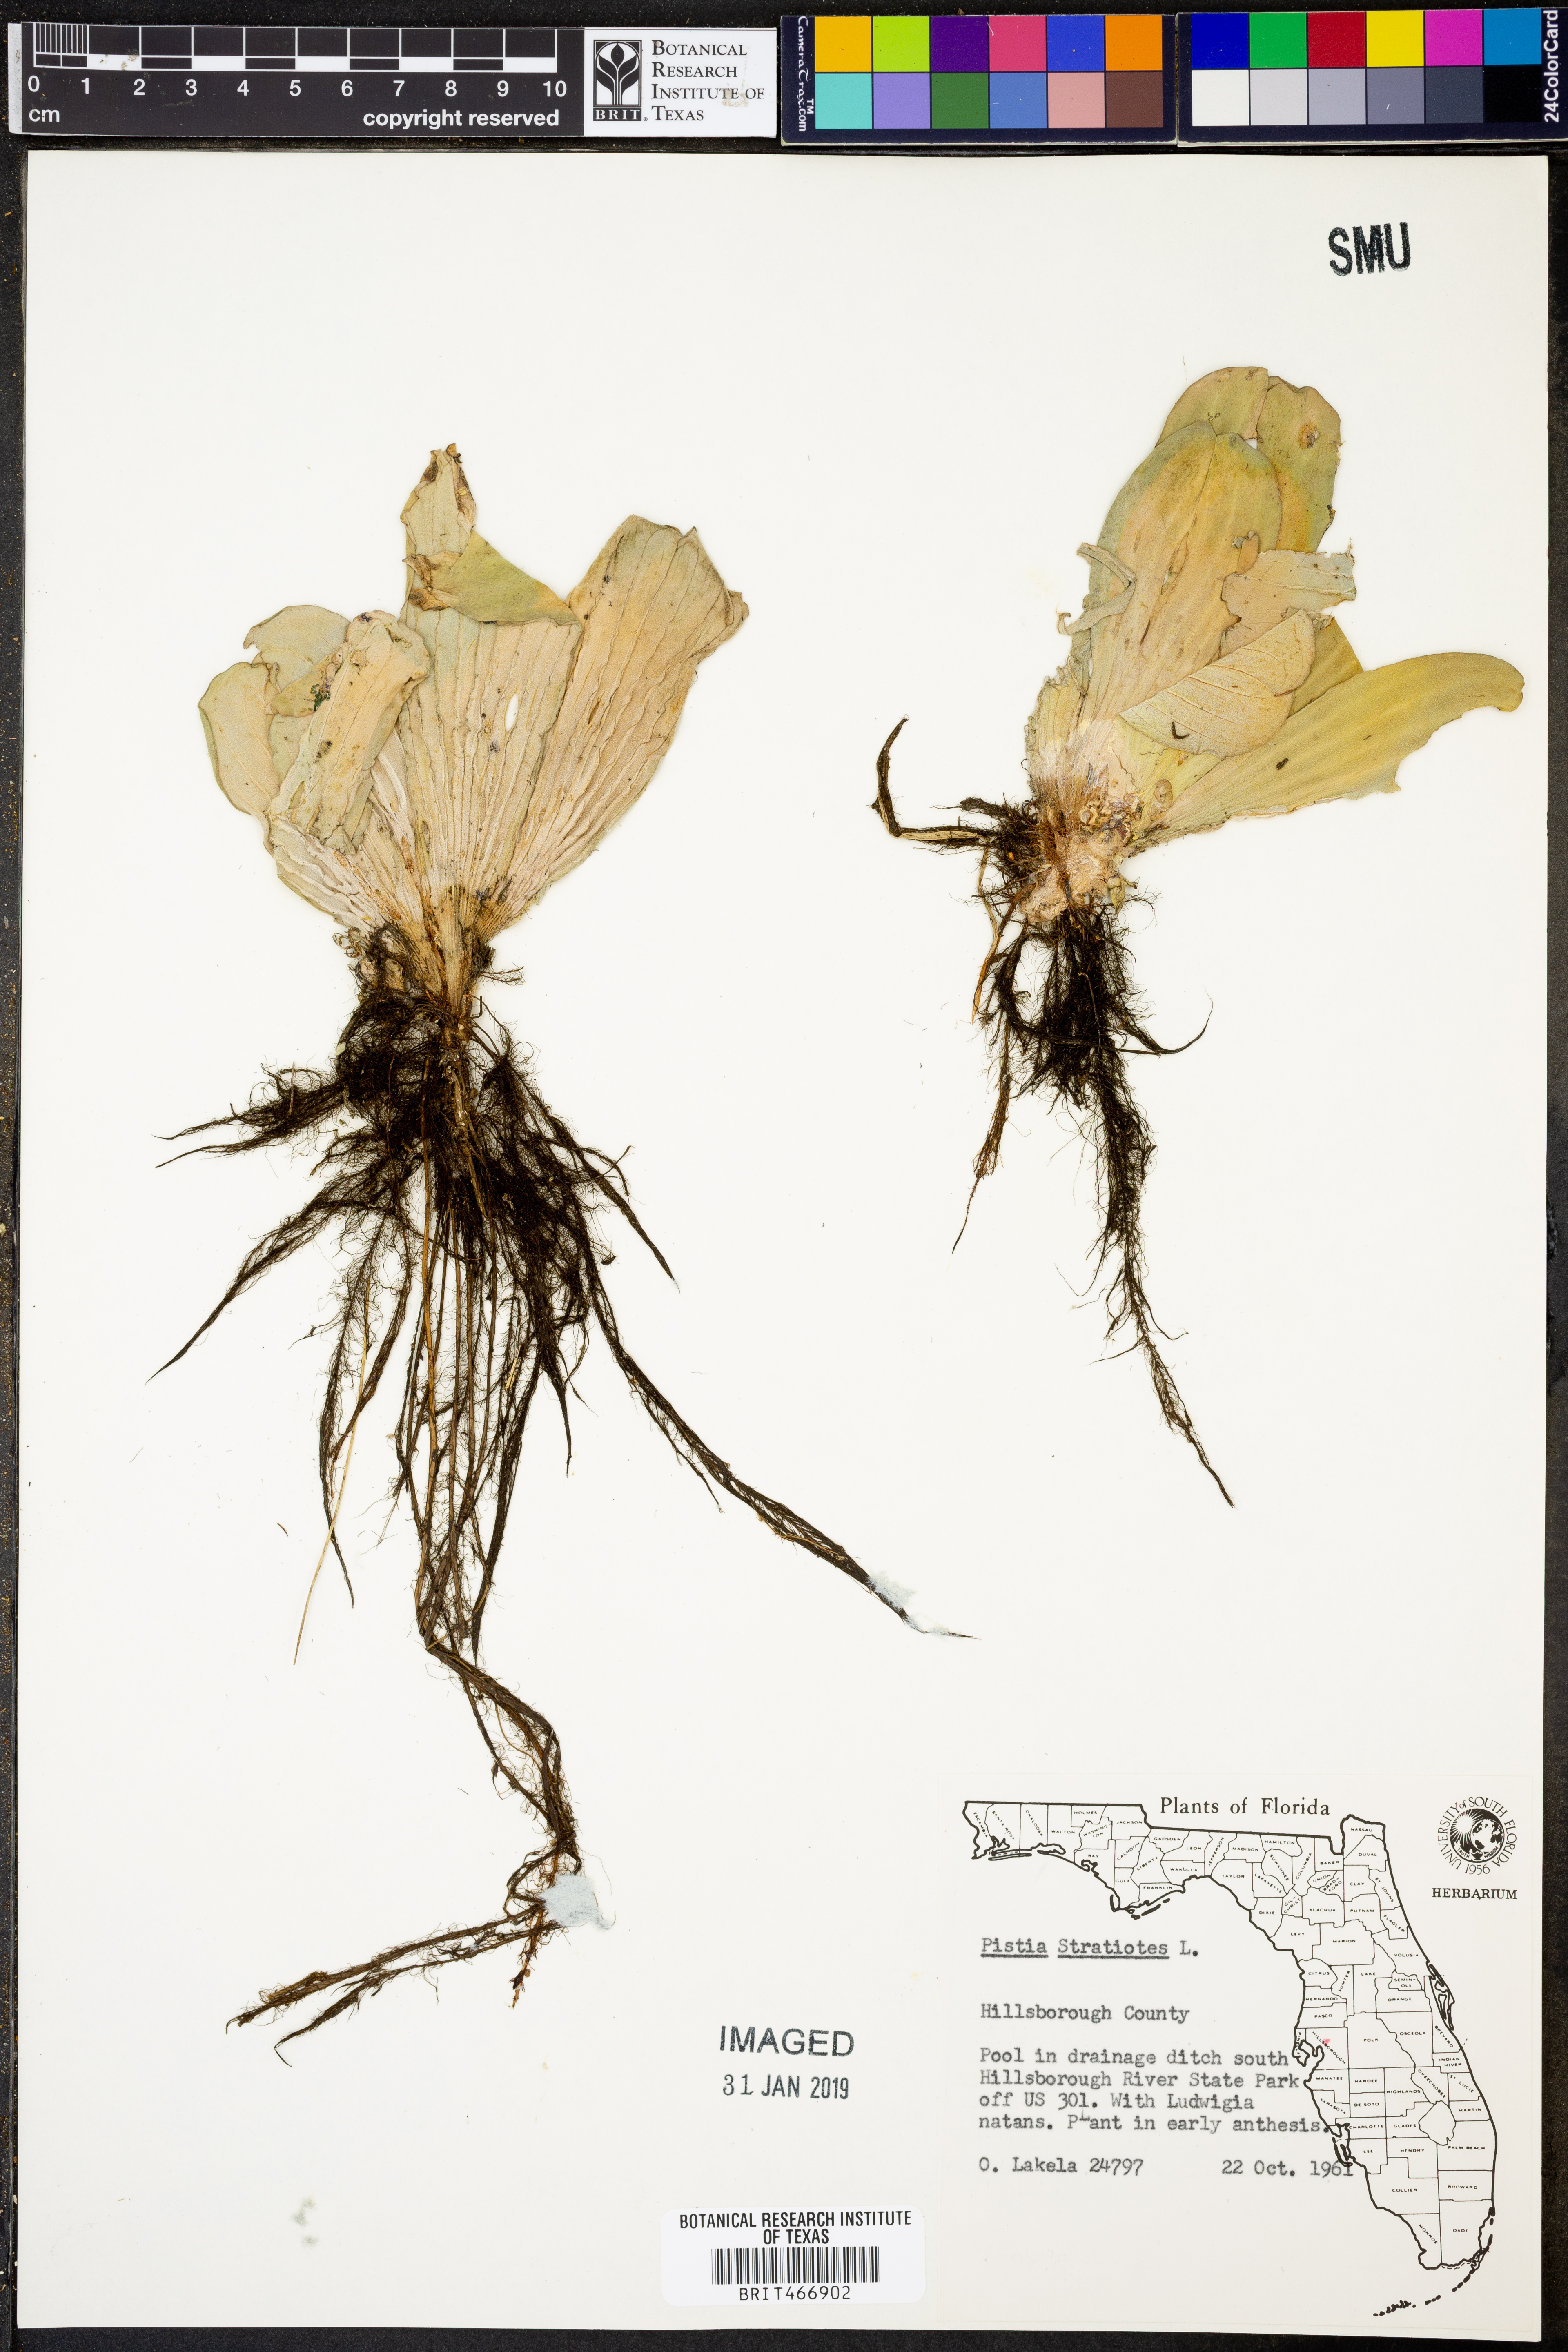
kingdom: Plantae
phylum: Tracheophyta
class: Liliopsida
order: Alismatales
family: Araceae
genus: Pistia
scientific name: Pistia stratiotes
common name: Water lettuce
